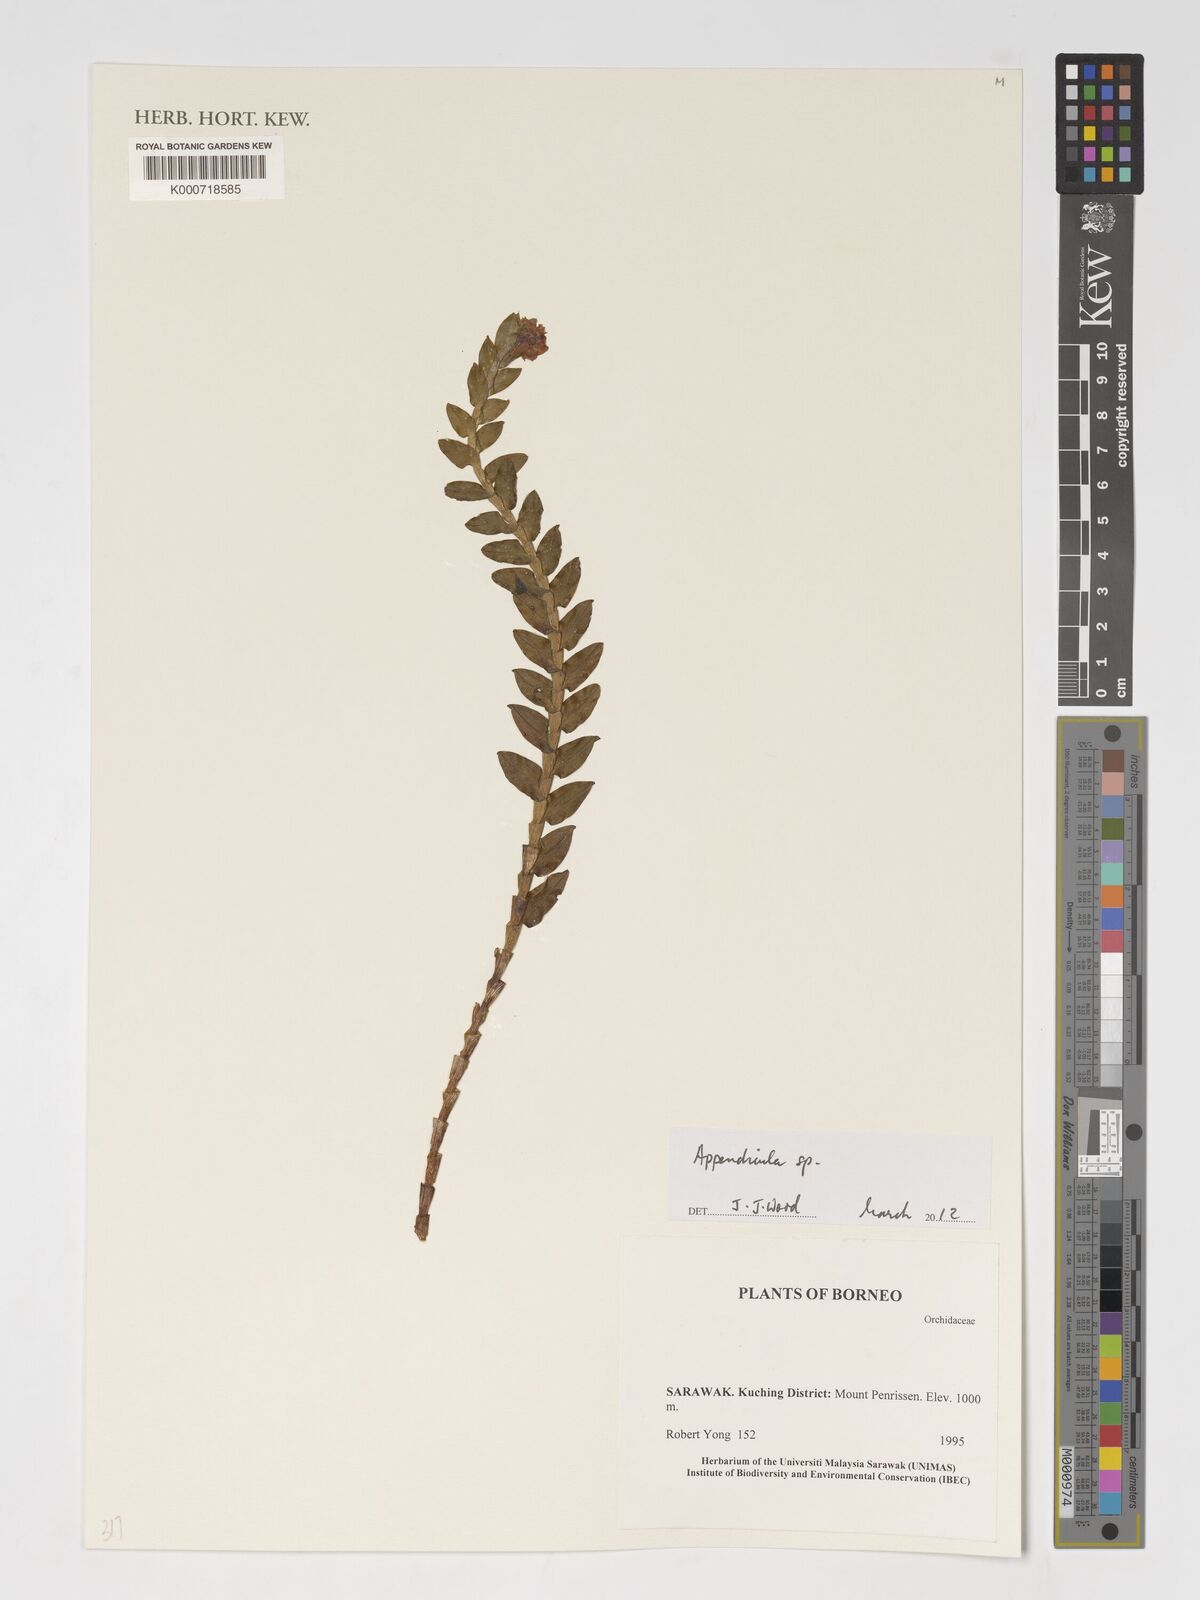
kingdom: Plantae
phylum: Tracheophyta
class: Liliopsida
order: Asparagales
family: Orchidaceae
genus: Appendicula
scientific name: Appendicula
